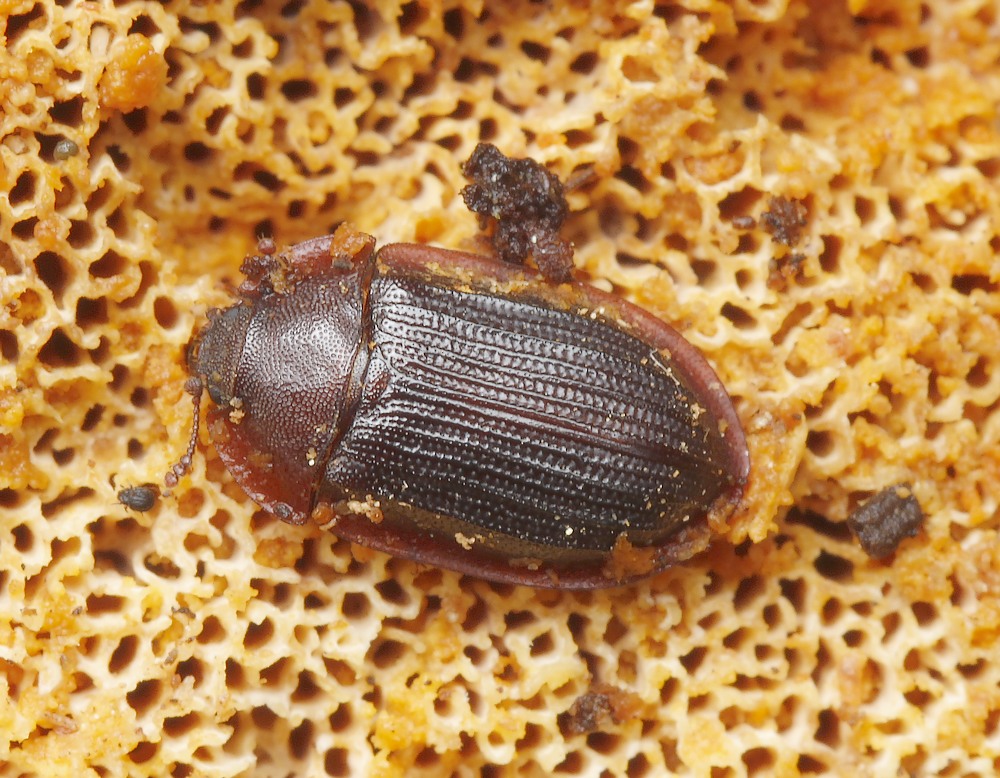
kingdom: Fungi
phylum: Basidiomycota
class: Agaricomycetes
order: Polyporales
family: Pycnoporellaceae
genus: Pycnoporellus
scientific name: Pycnoporellus fulgens
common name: flammeporesvamp
